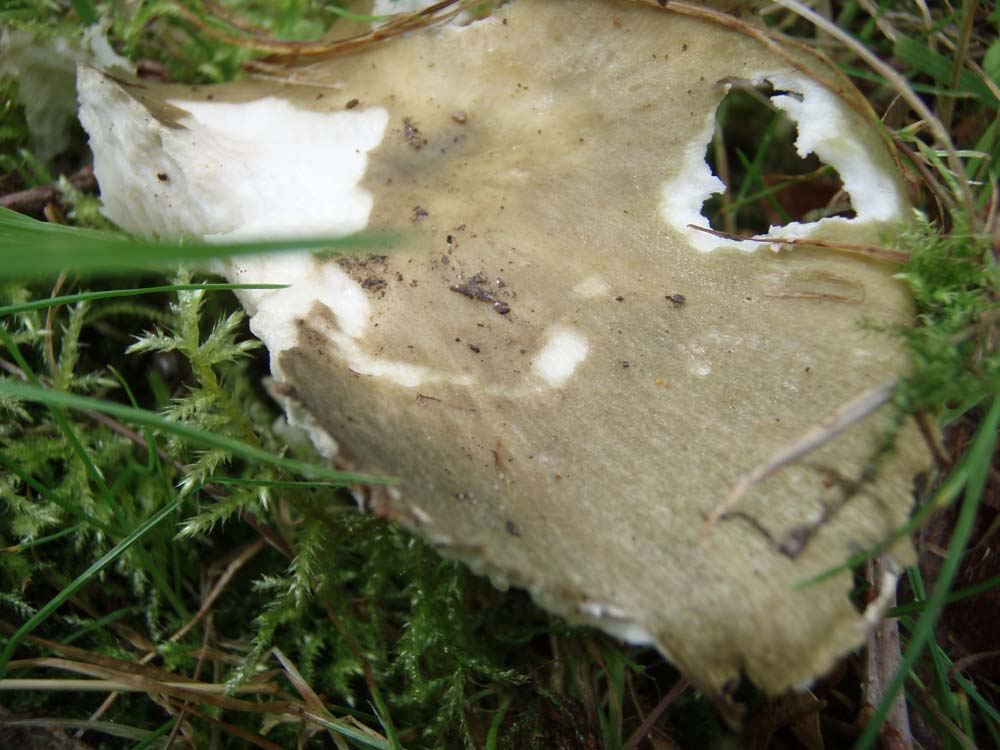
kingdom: Fungi
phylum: Basidiomycota
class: Agaricomycetes
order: Russulales
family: Russulaceae
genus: Russula
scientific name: Russula heterophylla
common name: gaffelbladet skørhat
